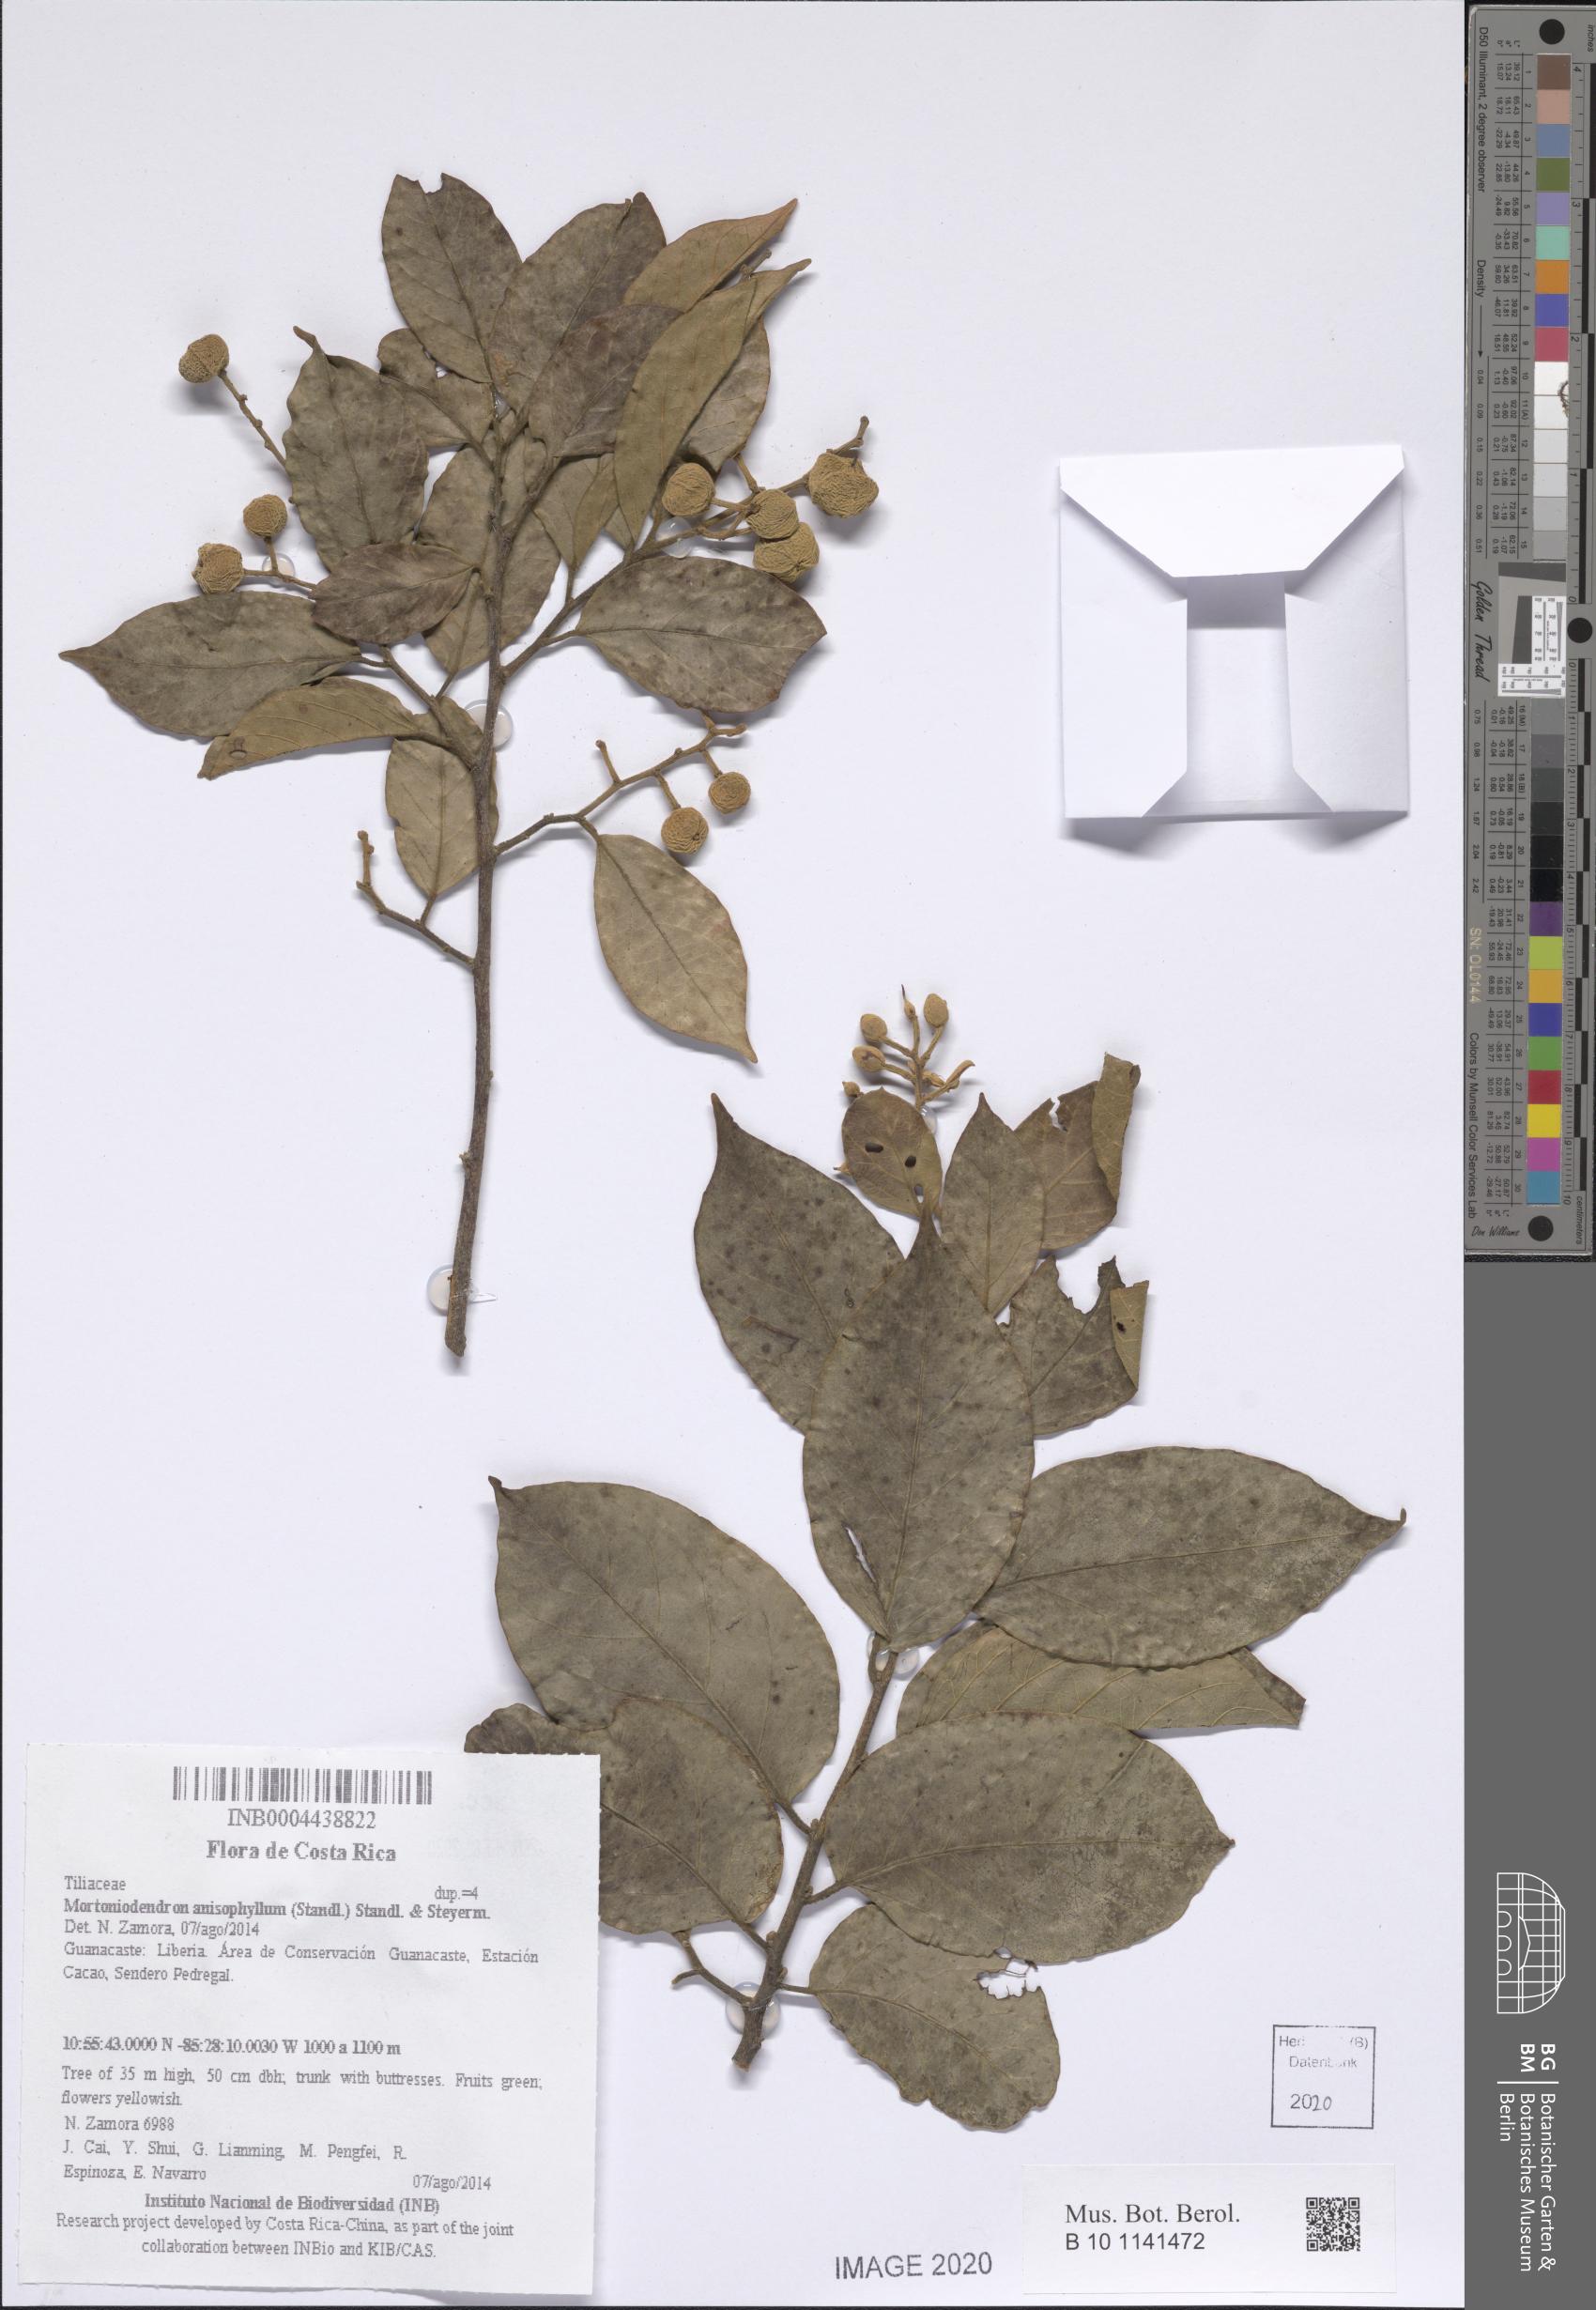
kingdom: Plantae
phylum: Tracheophyta
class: Magnoliopsida
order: Malvales
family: Malvaceae
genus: Mortoniodendron
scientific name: Mortoniodendron anisophyllum
